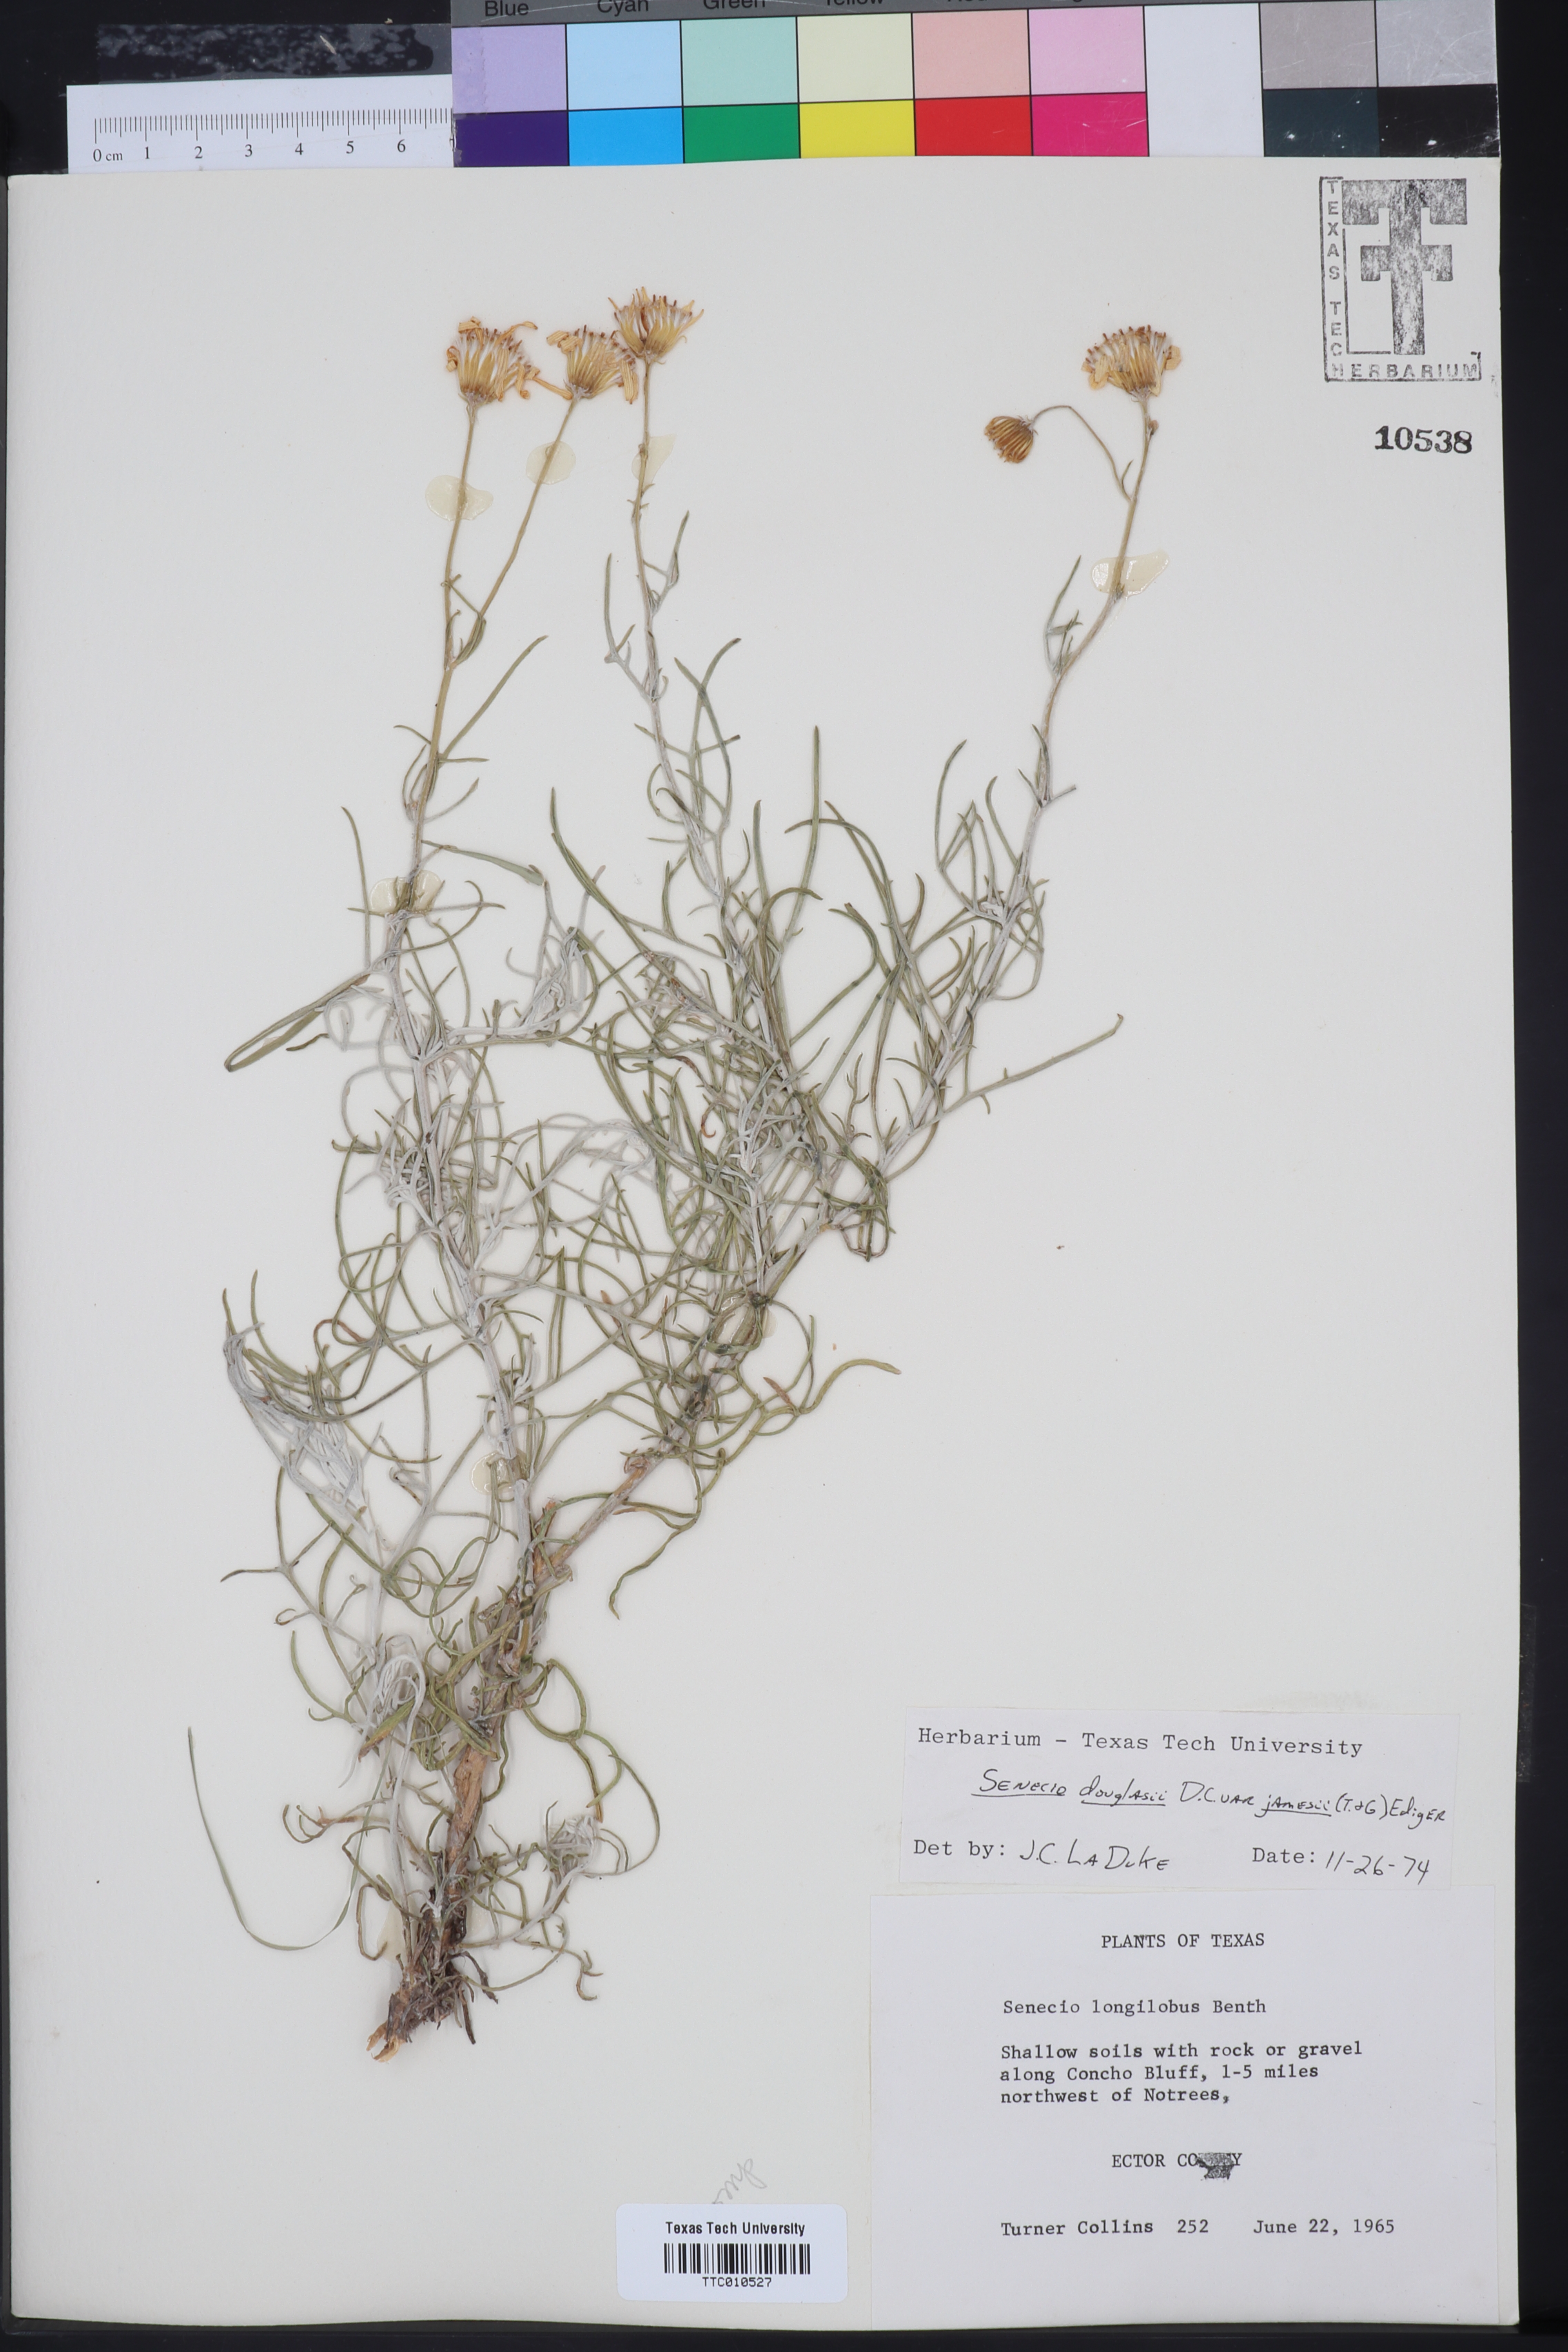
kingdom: Plantae
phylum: Tracheophyta
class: Magnoliopsida
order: Asterales
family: Asteraceae
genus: Senecio
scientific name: Senecio flaccidus
